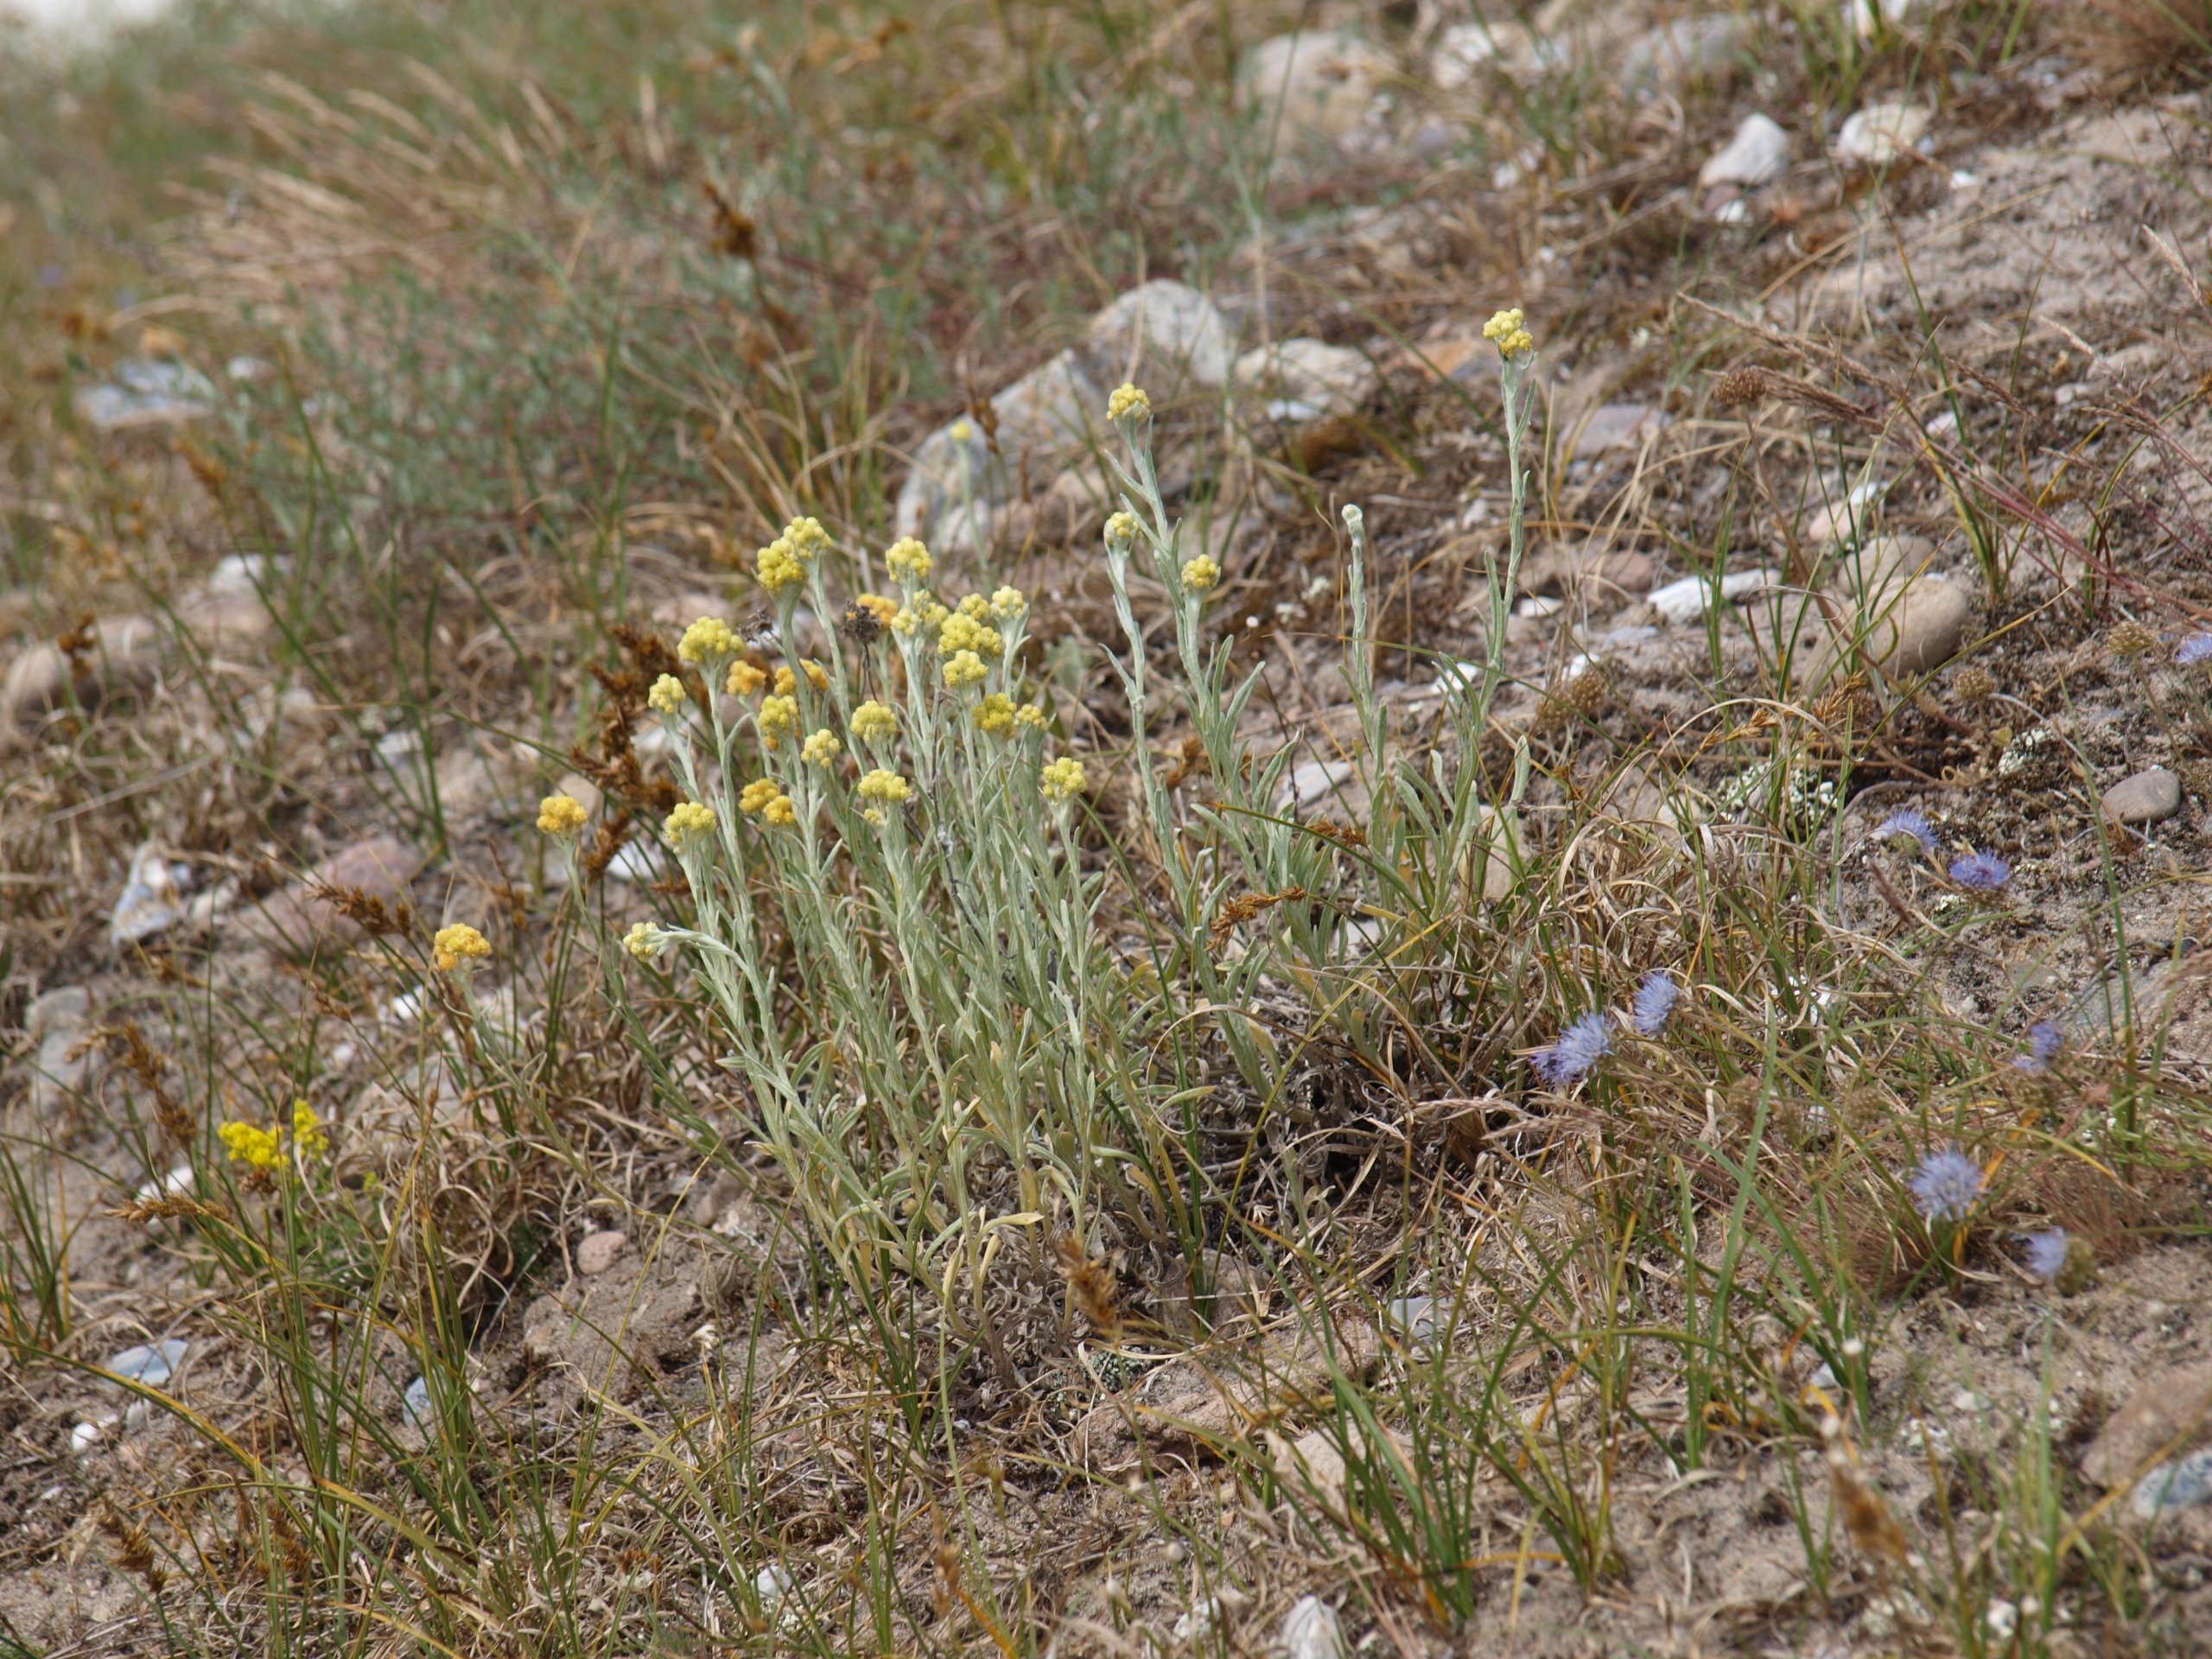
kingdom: Plantae
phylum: Tracheophyta
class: Magnoliopsida
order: Asterales
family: Asteraceae
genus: Helichrysum
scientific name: Helichrysum arenarium
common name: Gul evighedsblomst
